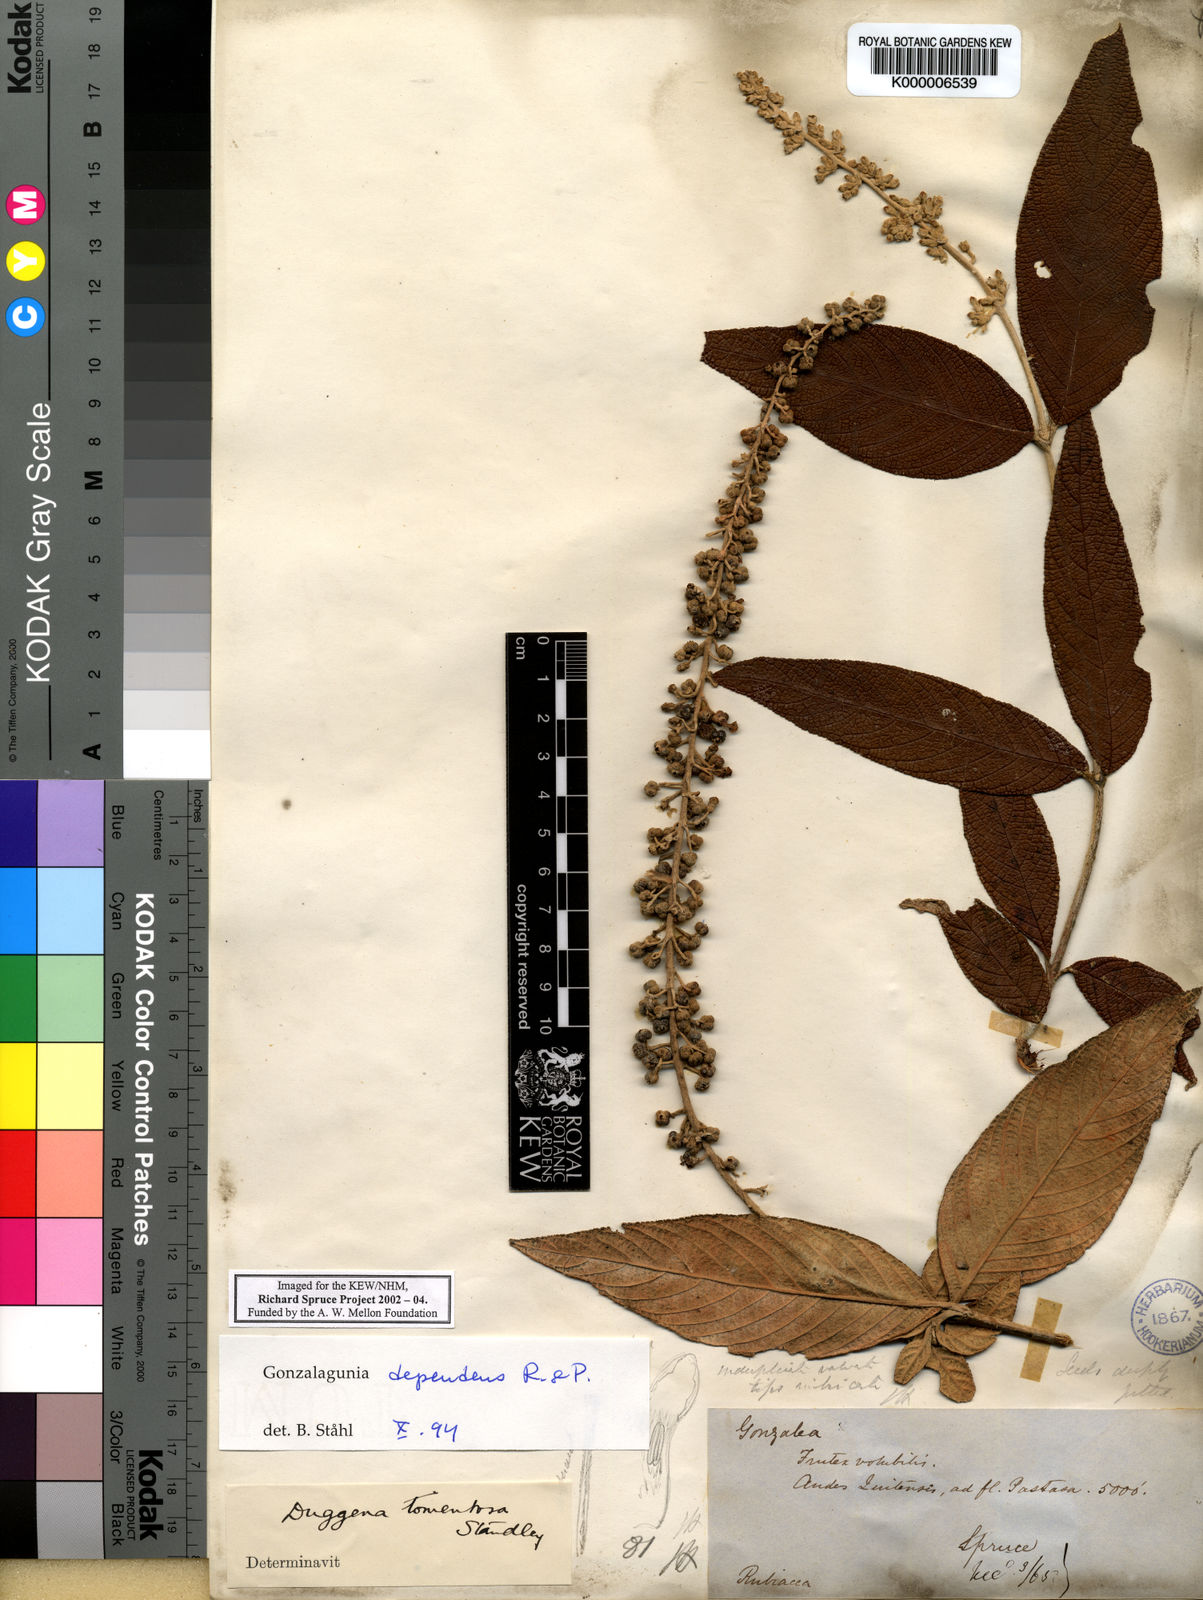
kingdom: Plantae
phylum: Tracheophyta
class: Magnoliopsida
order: Gentianales
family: Rubiaceae
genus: Gonzalagunia
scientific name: Gonzalagunia dependens
